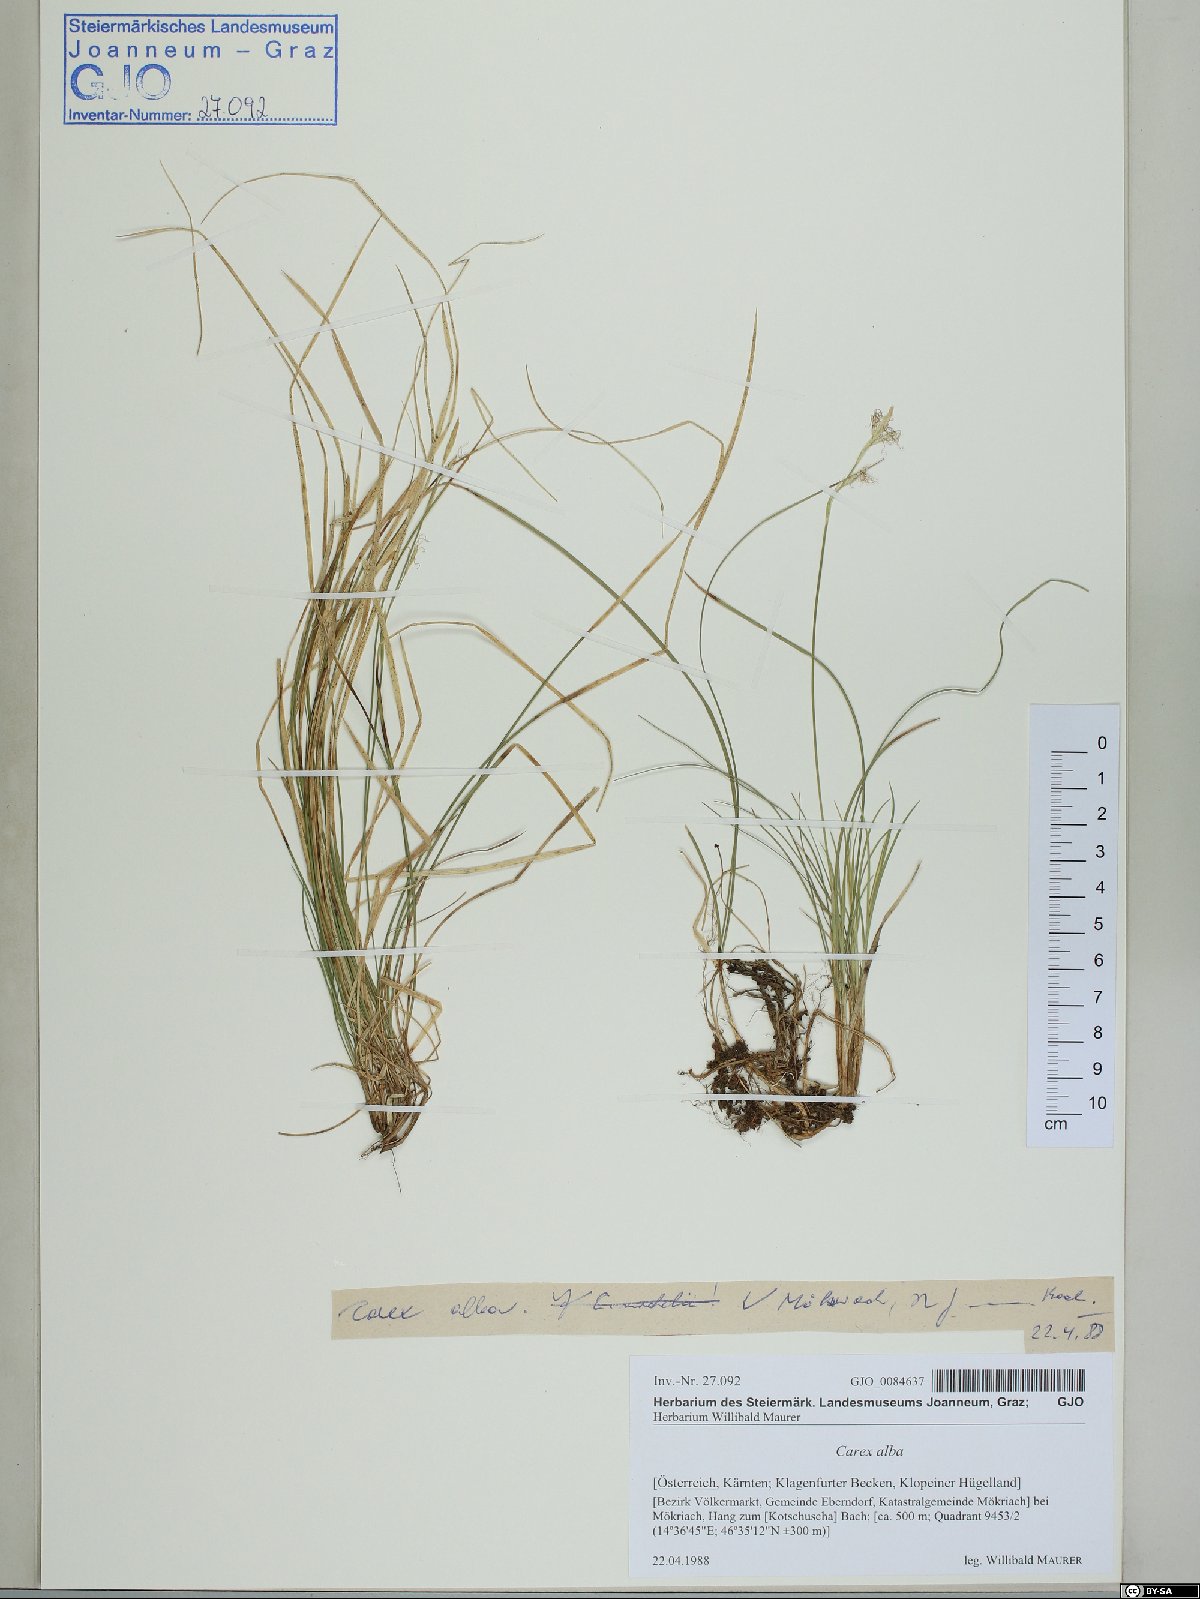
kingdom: Plantae
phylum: Tracheophyta
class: Liliopsida
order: Poales
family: Cyperaceae
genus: Carex
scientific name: Carex alba
